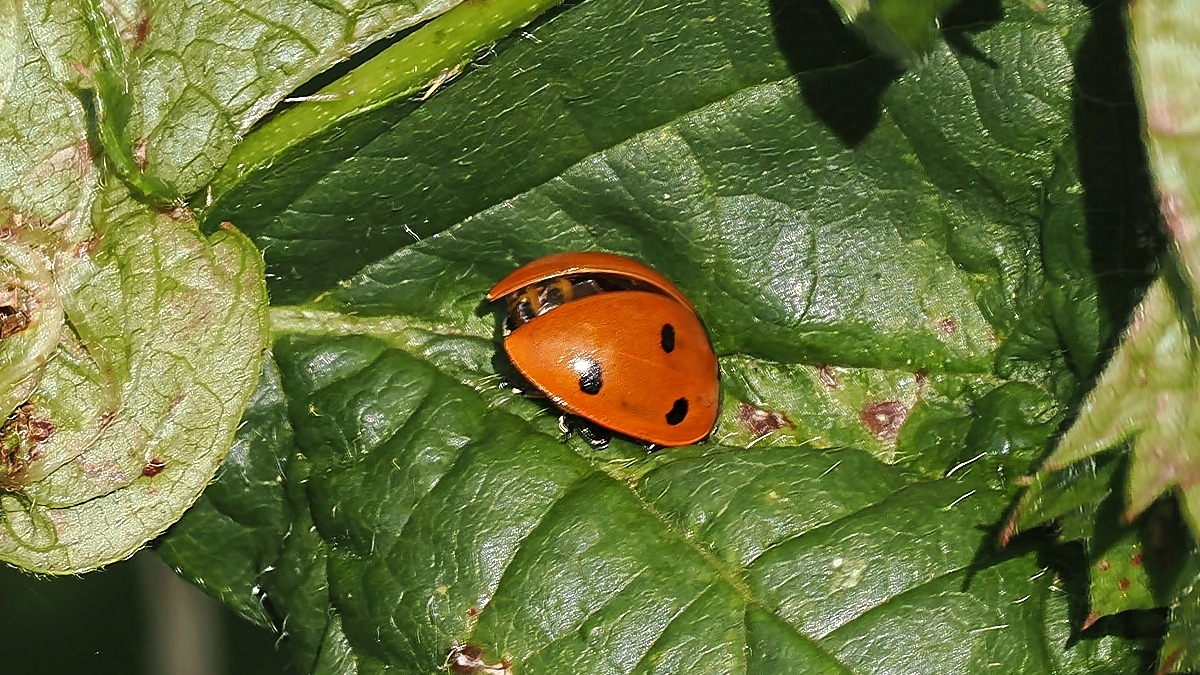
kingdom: Animalia
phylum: Arthropoda
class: Insecta
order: Coleoptera
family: Coccinellidae
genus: Coccinella
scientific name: Coccinella septempunctata
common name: Syvplettet mariehøne
